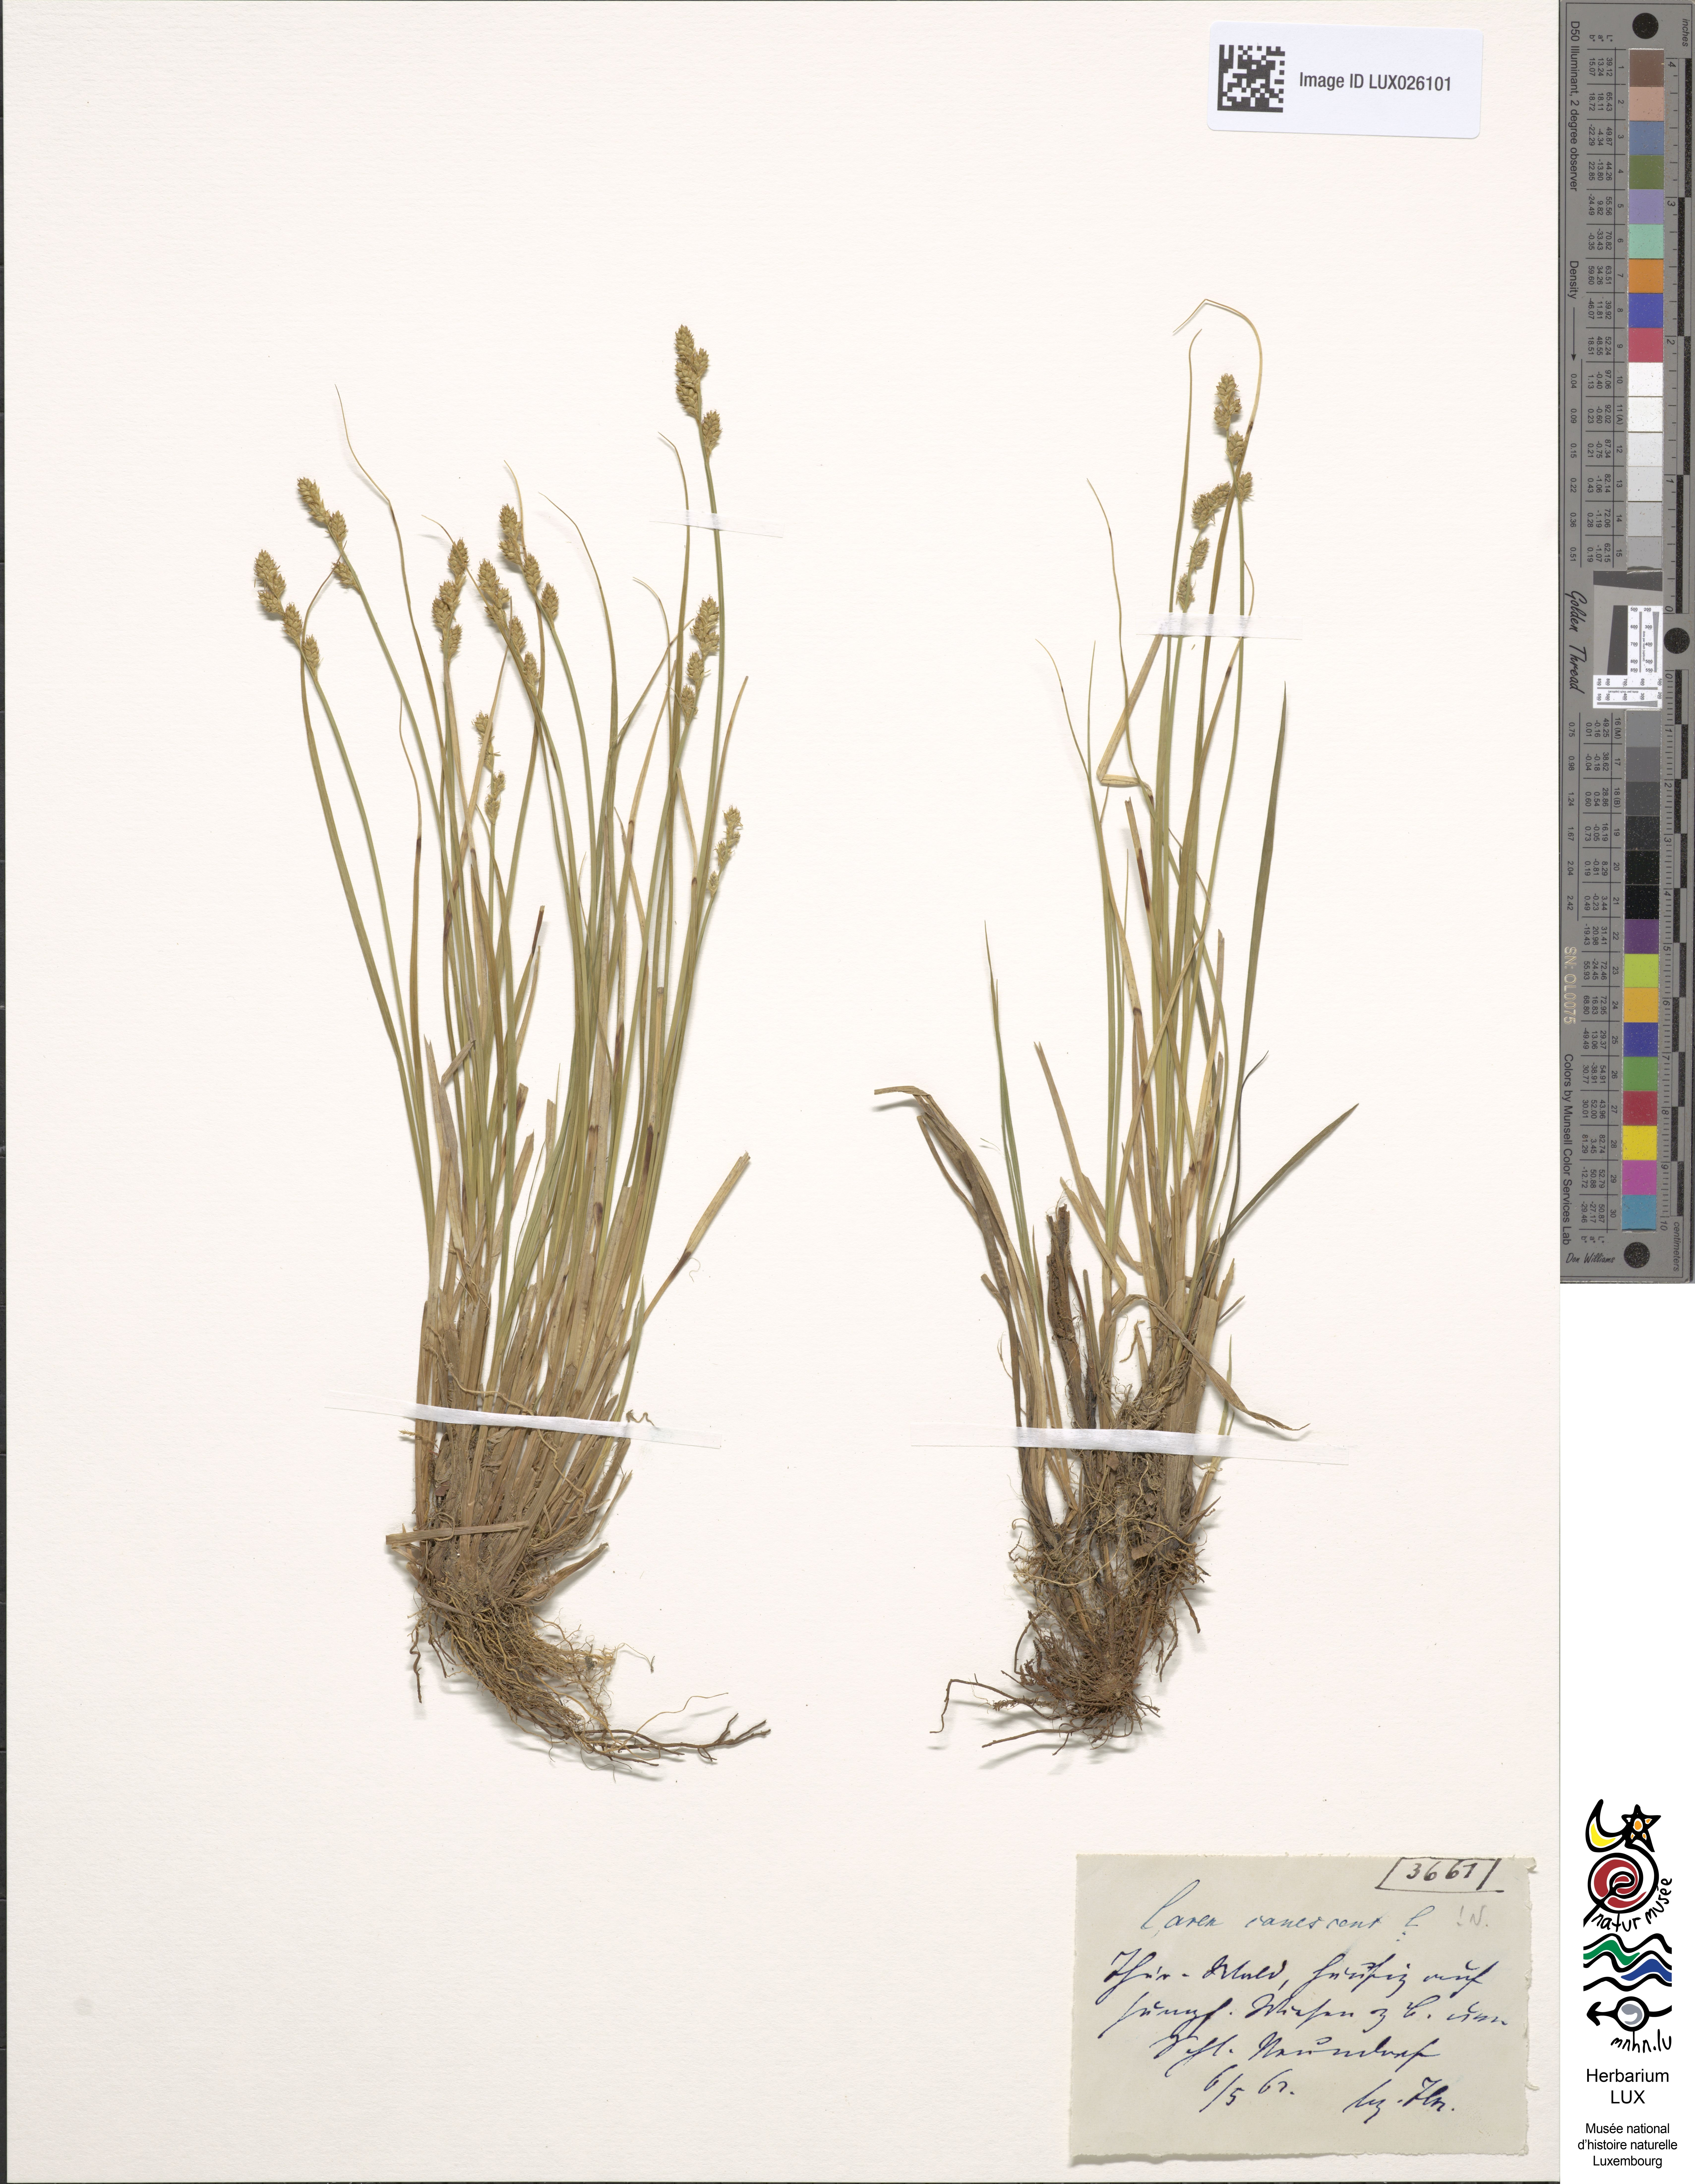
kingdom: Plantae
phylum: Tracheophyta
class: Liliopsida
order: Poales
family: Cyperaceae
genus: Carex
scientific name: Carex canescens
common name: White sedge
